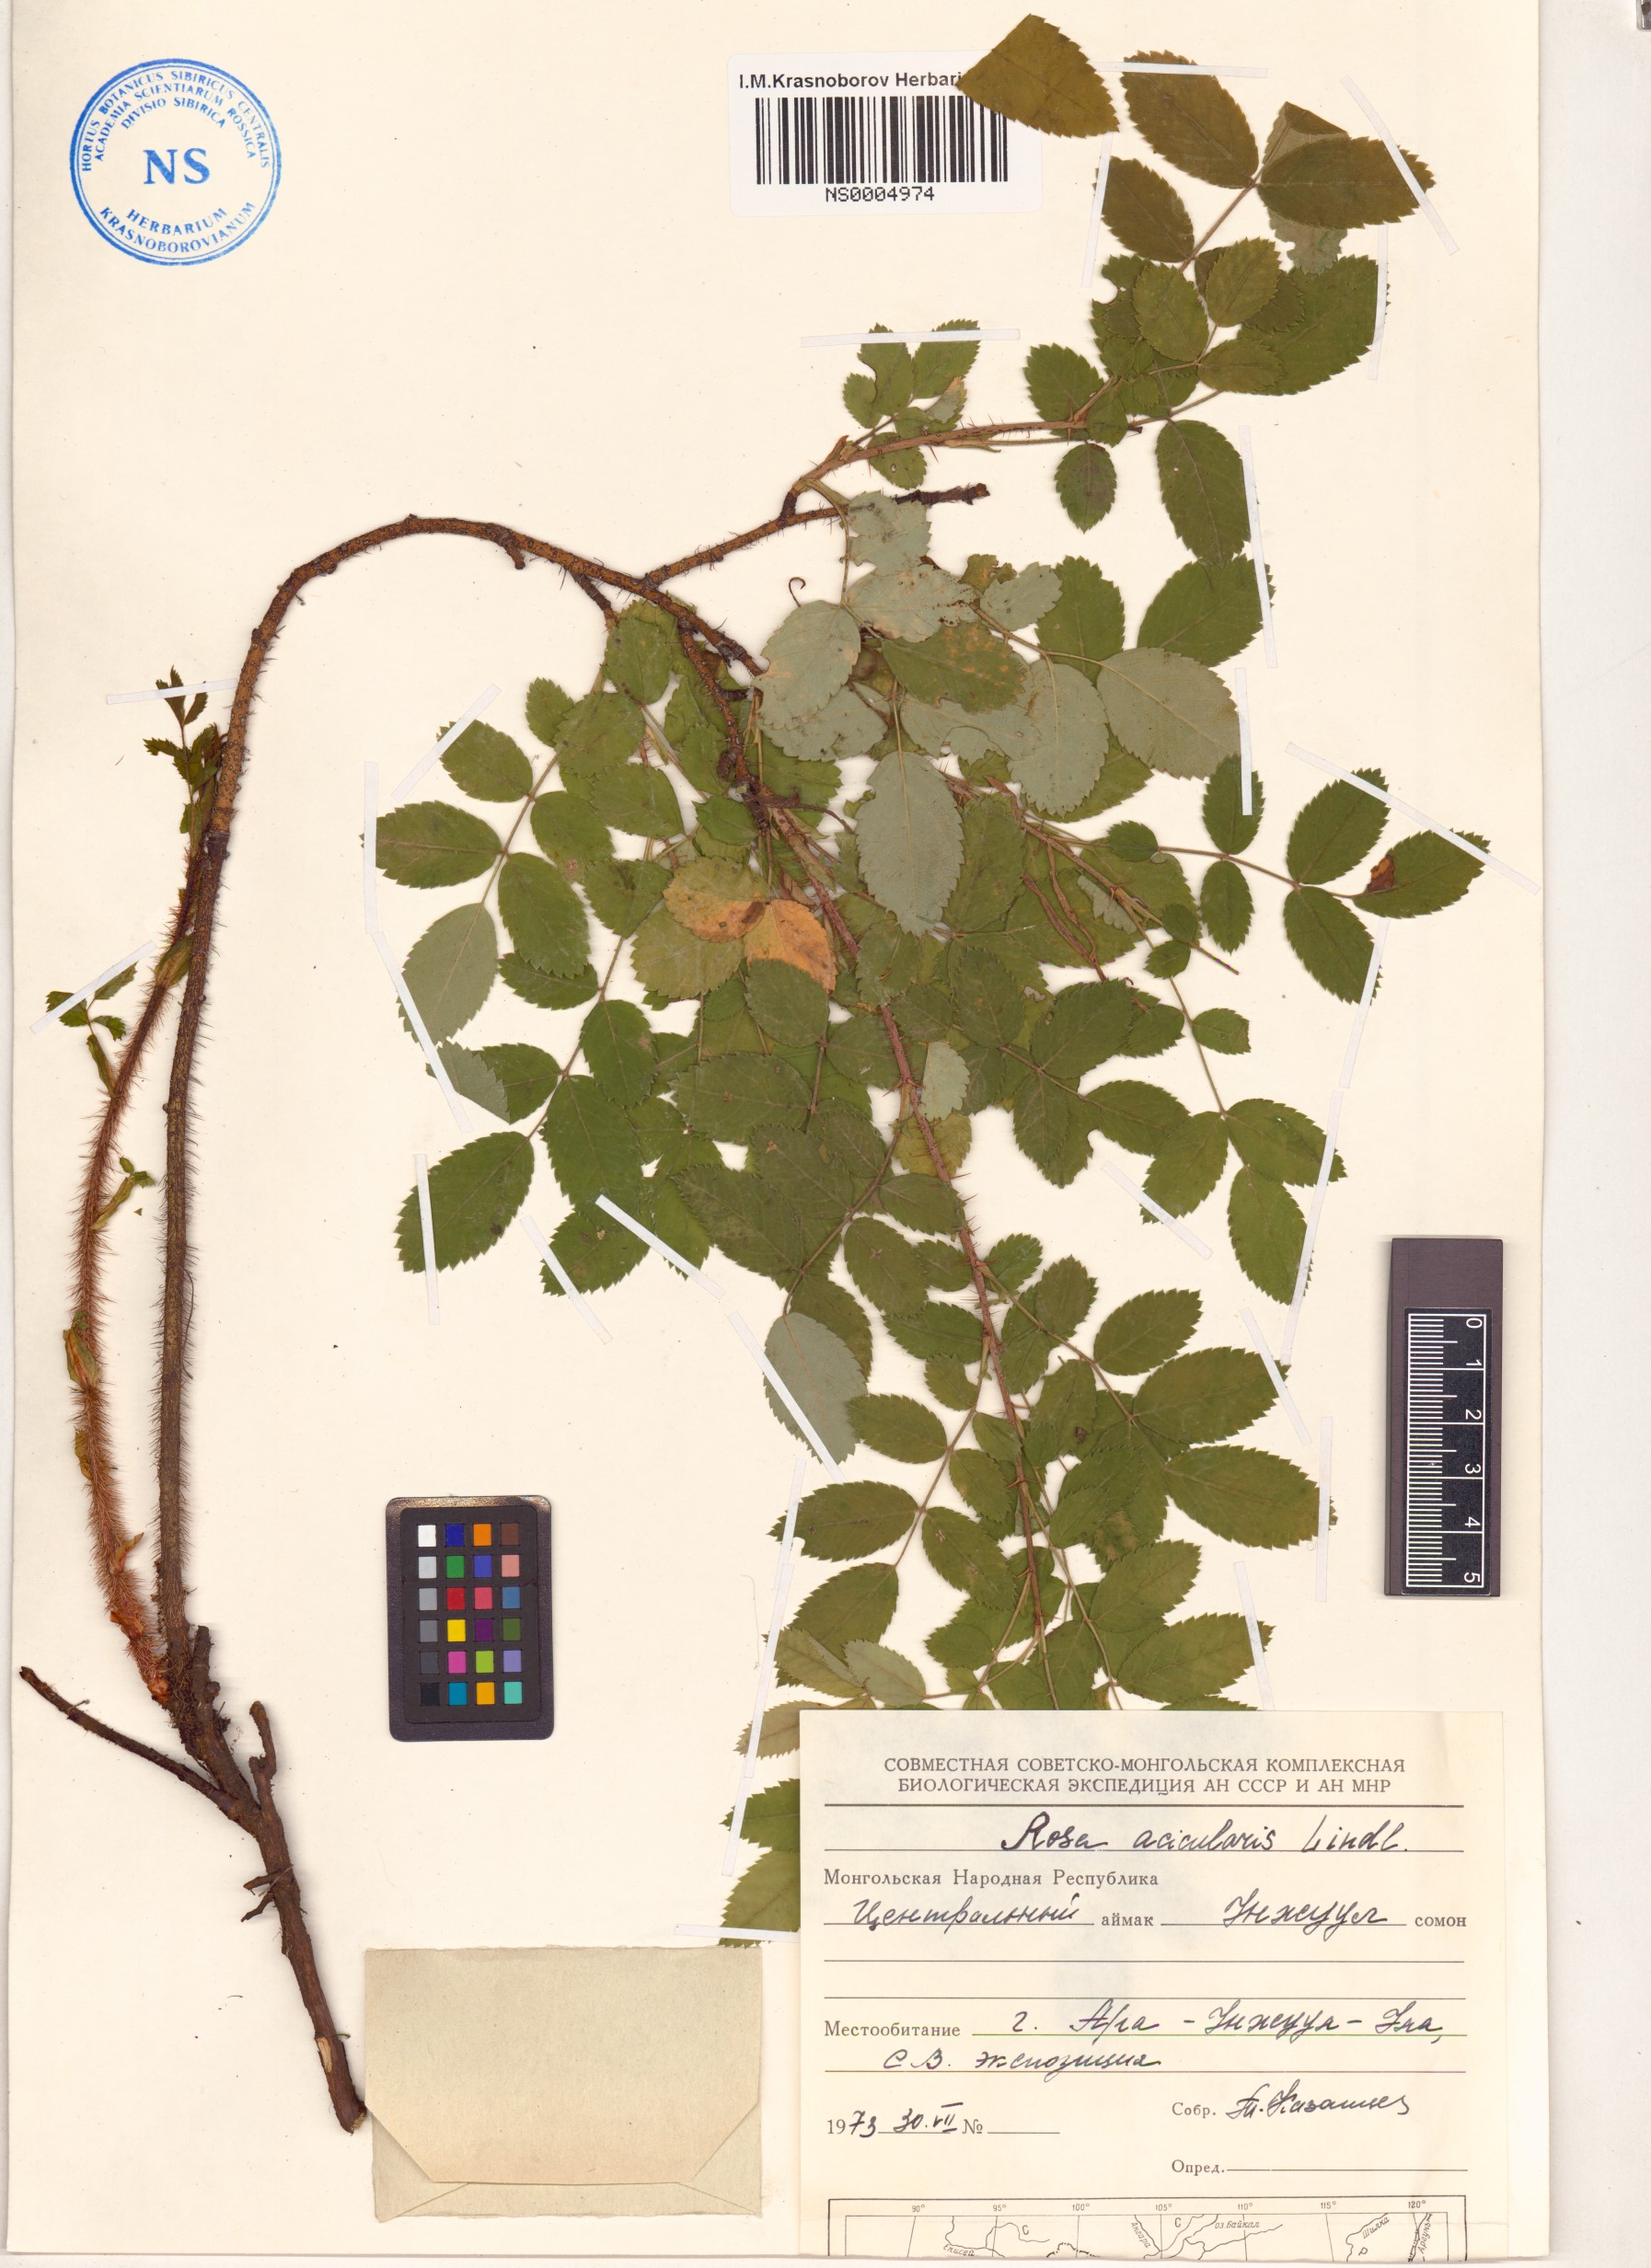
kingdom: Plantae
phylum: Tracheophyta
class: Magnoliopsida
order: Rosales
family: Rosaceae
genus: Rosa
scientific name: Rosa acicularis
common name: Prickly rose
